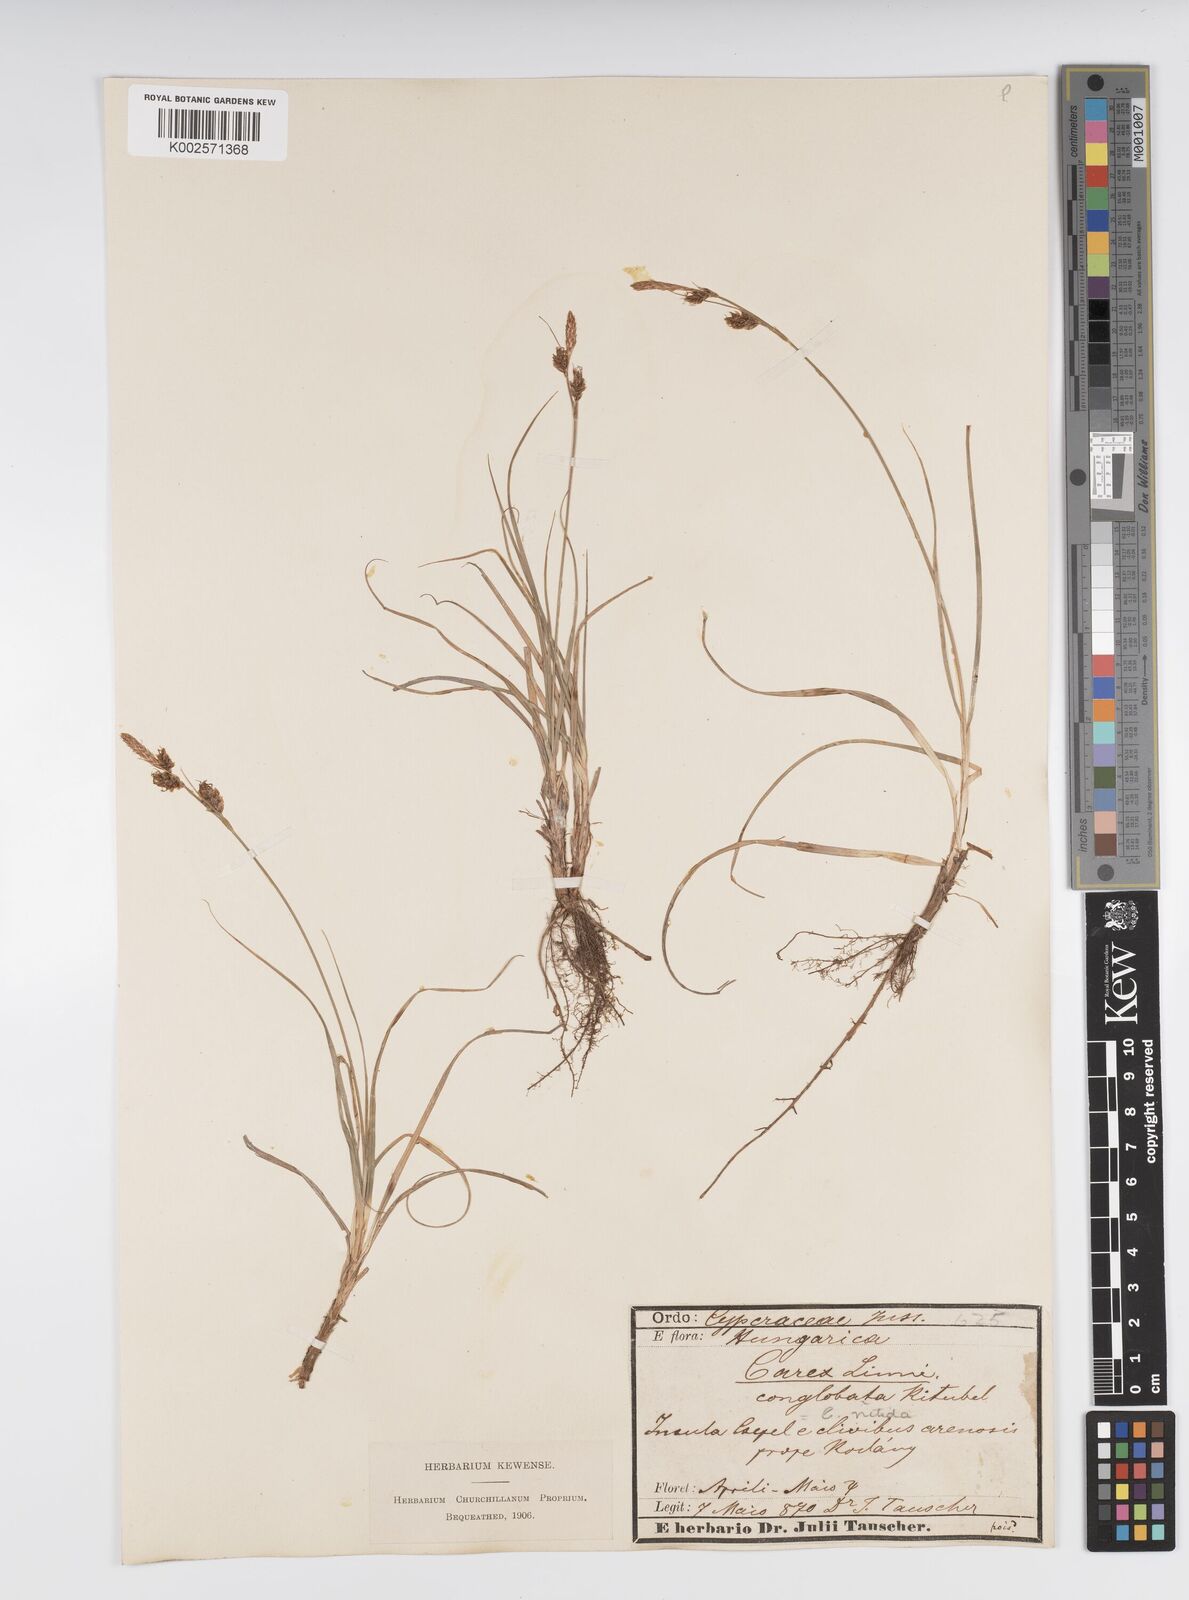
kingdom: Plantae
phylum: Tracheophyta
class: Liliopsida
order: Poales
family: Cyperaceae
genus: Carex
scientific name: Carex liparocarpos
